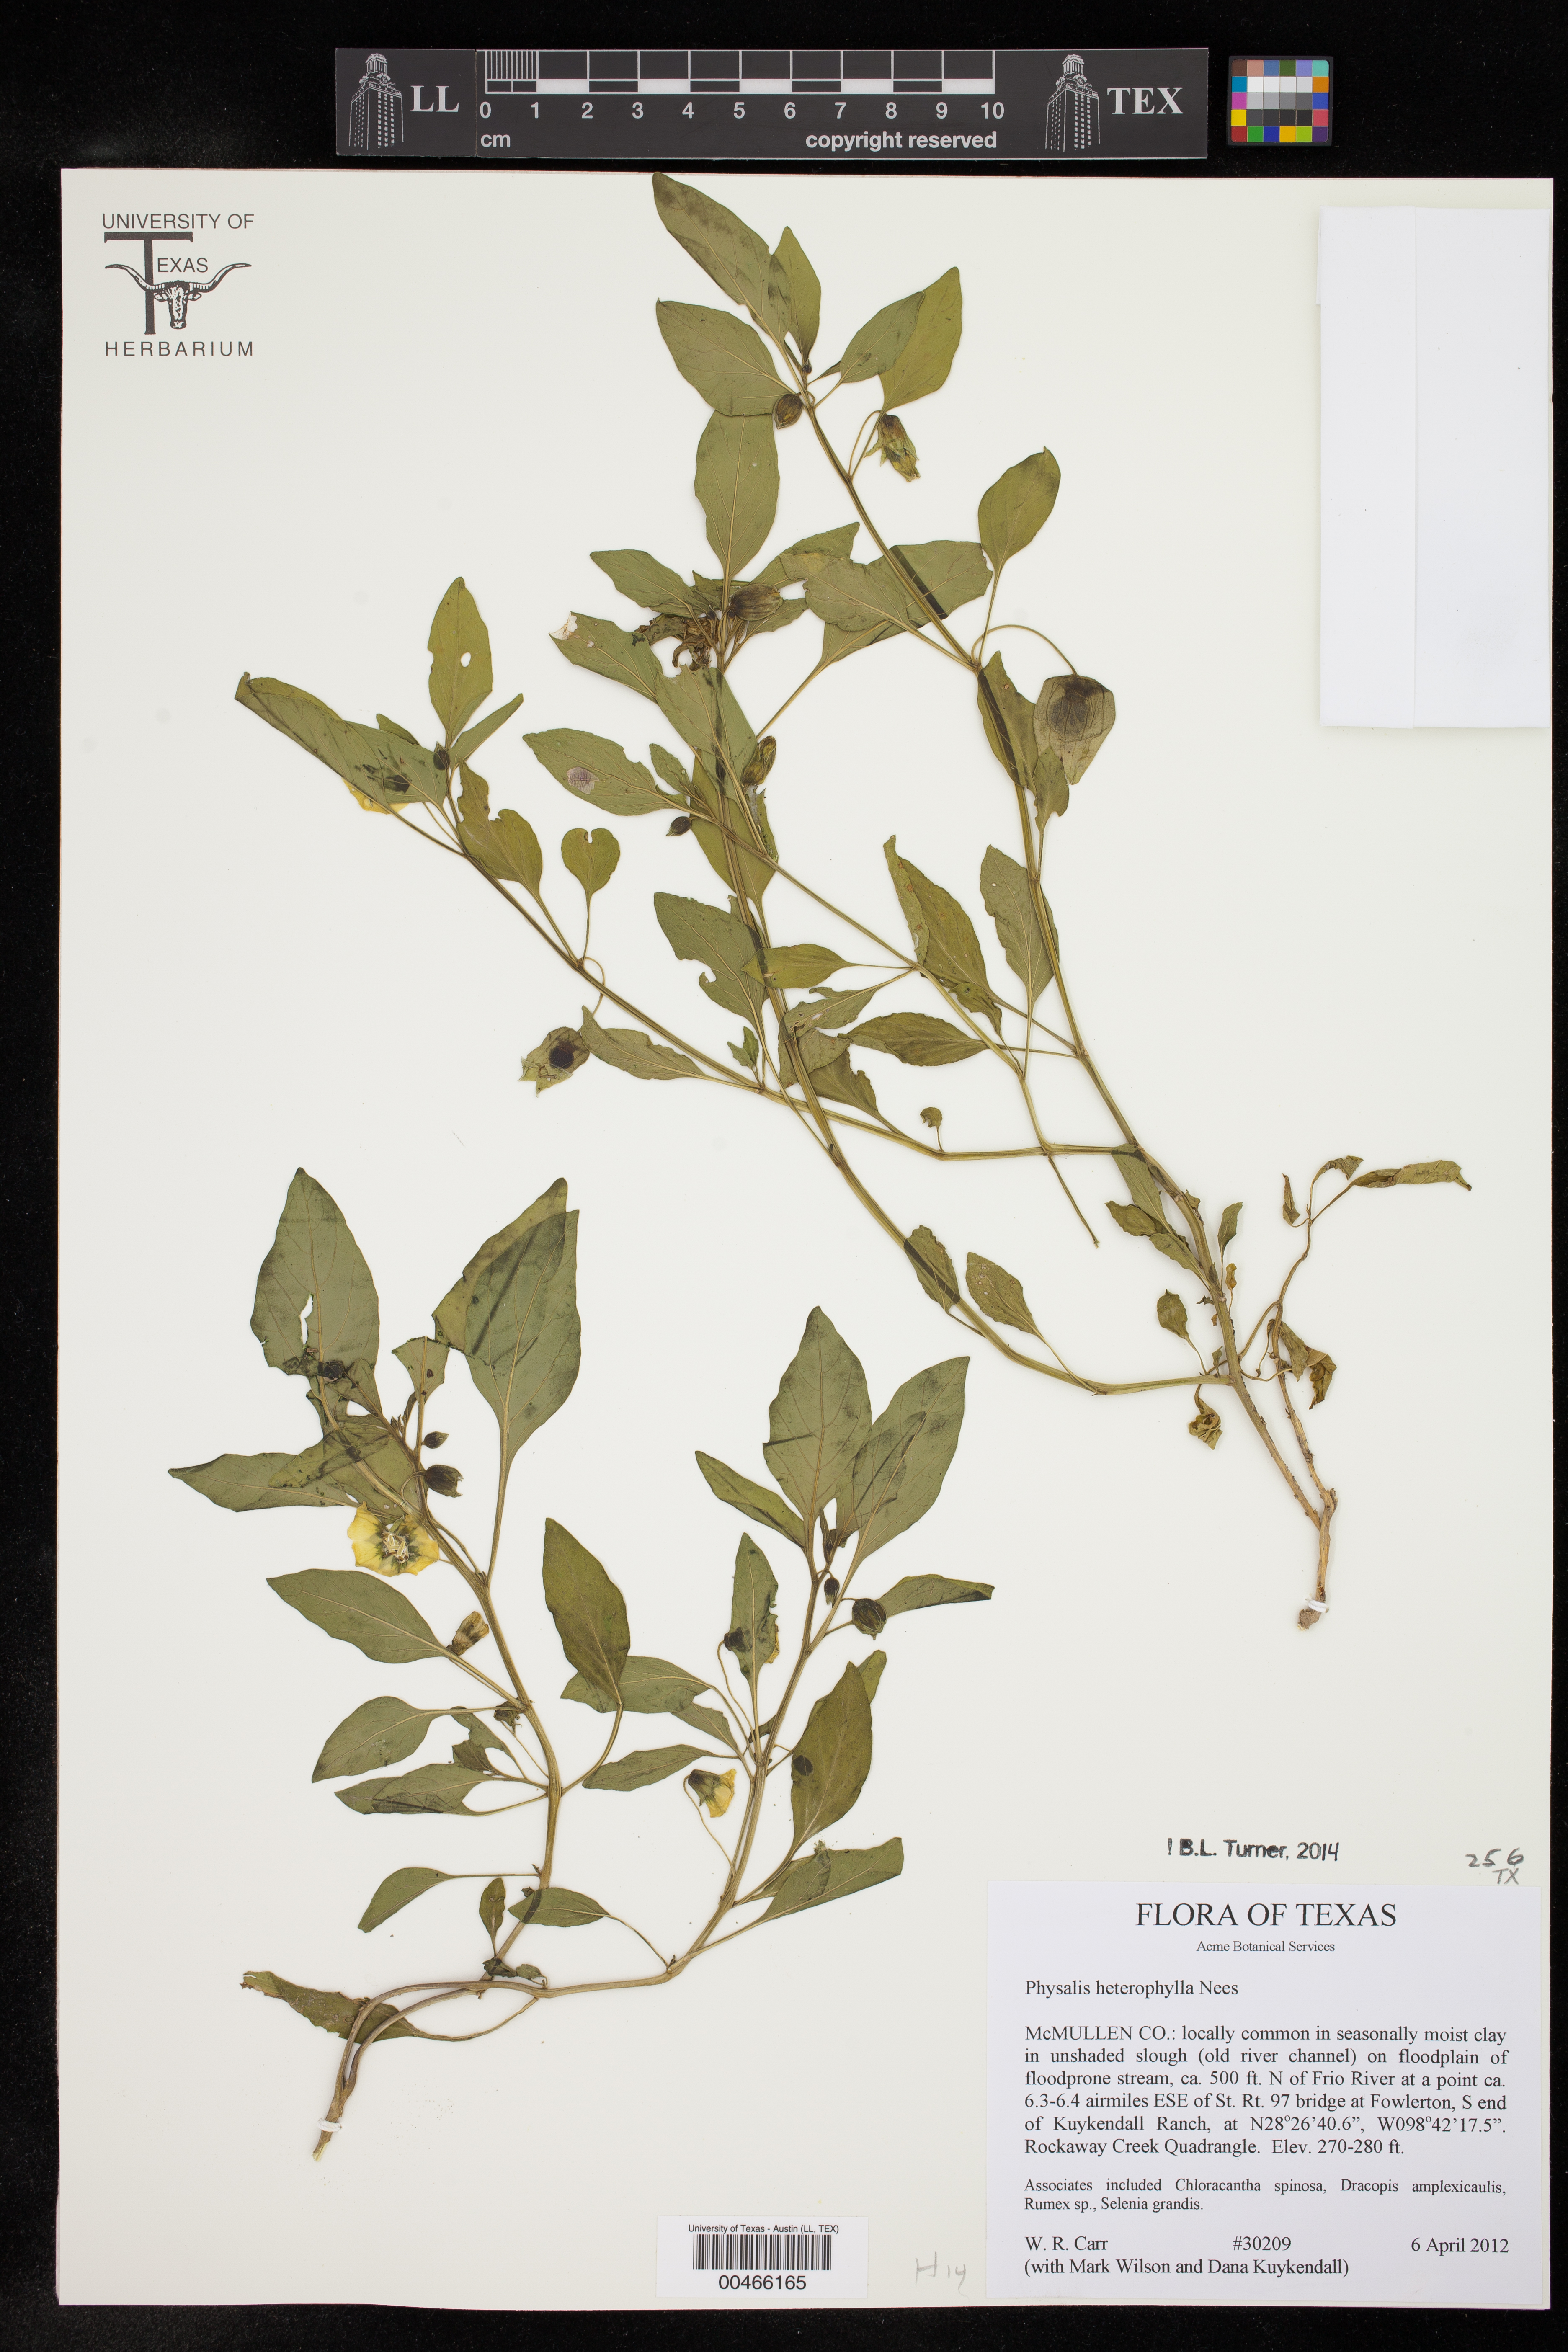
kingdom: Plantae
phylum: Tracheophyta
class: Magnoliopsida
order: Solanales
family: Solanaceae
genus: Physalis
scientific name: Physalis longifolia
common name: Common ground-cherry
